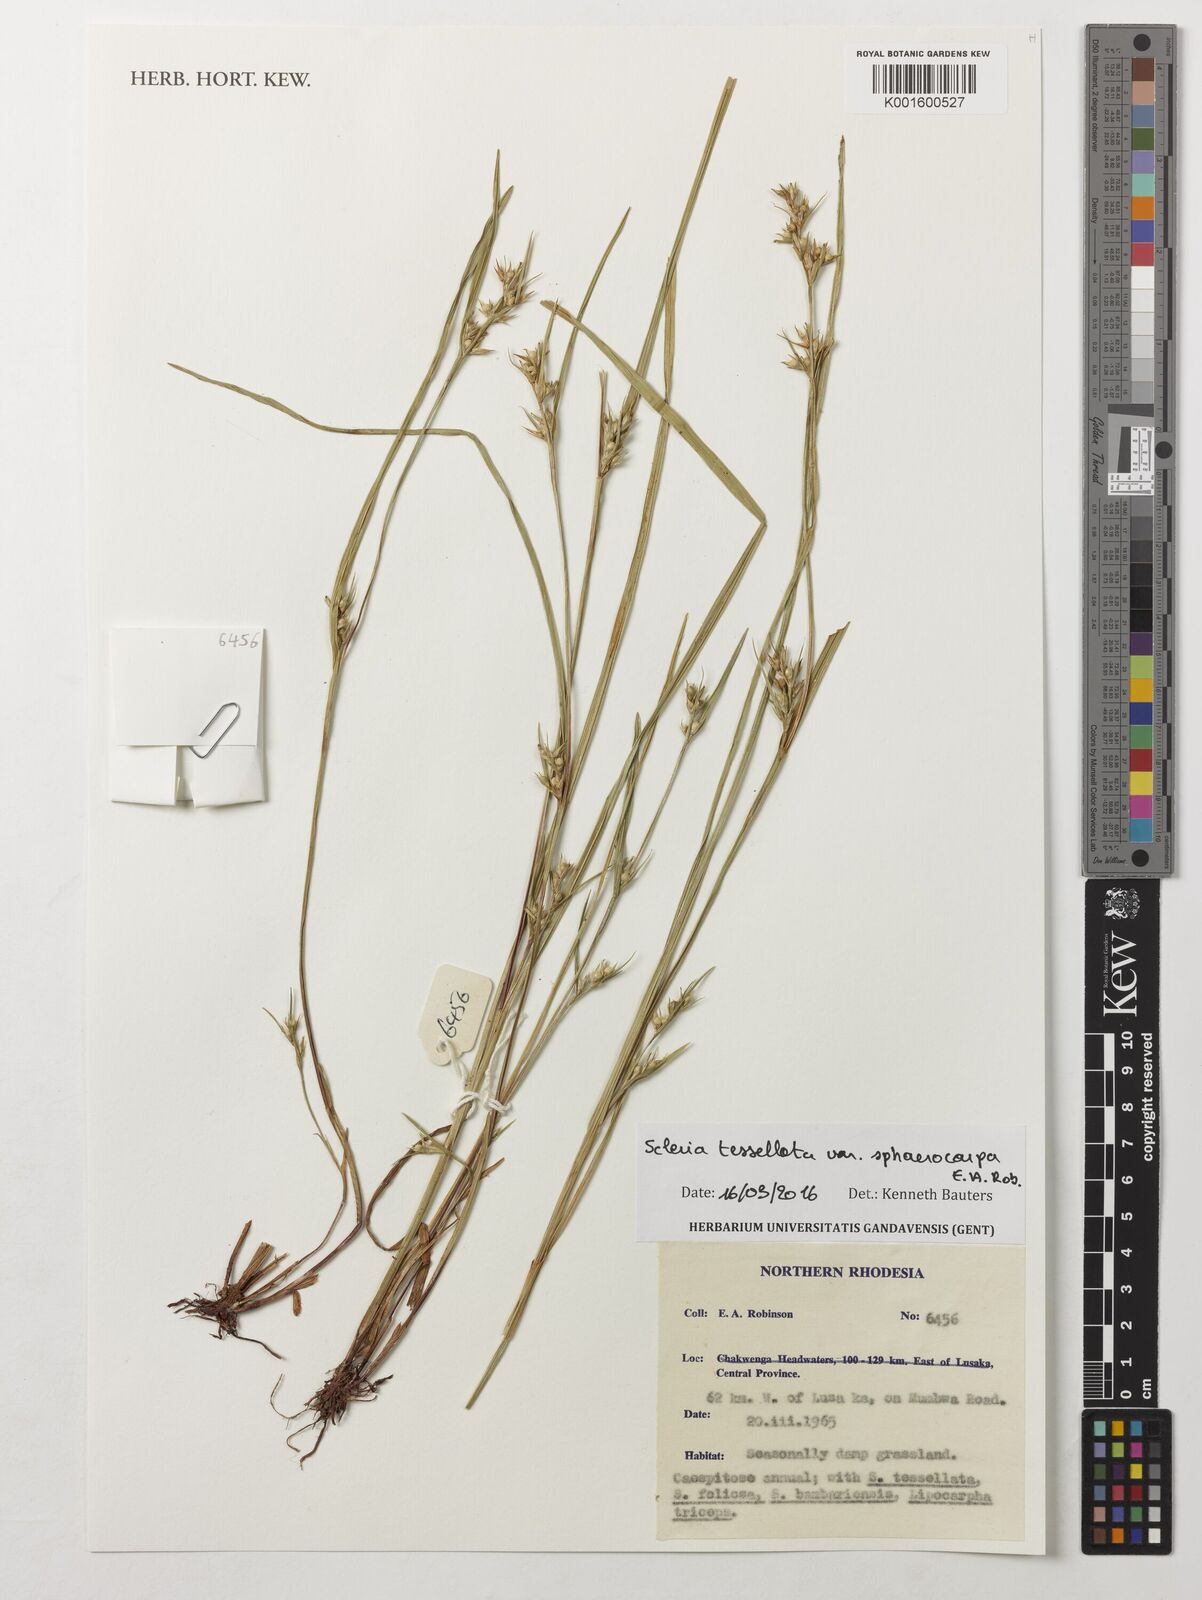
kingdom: Plantae
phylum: Tracheophyta
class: Liliopsida
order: Poales
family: Cyperaceae
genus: Scleria
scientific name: Scleria tessellata
